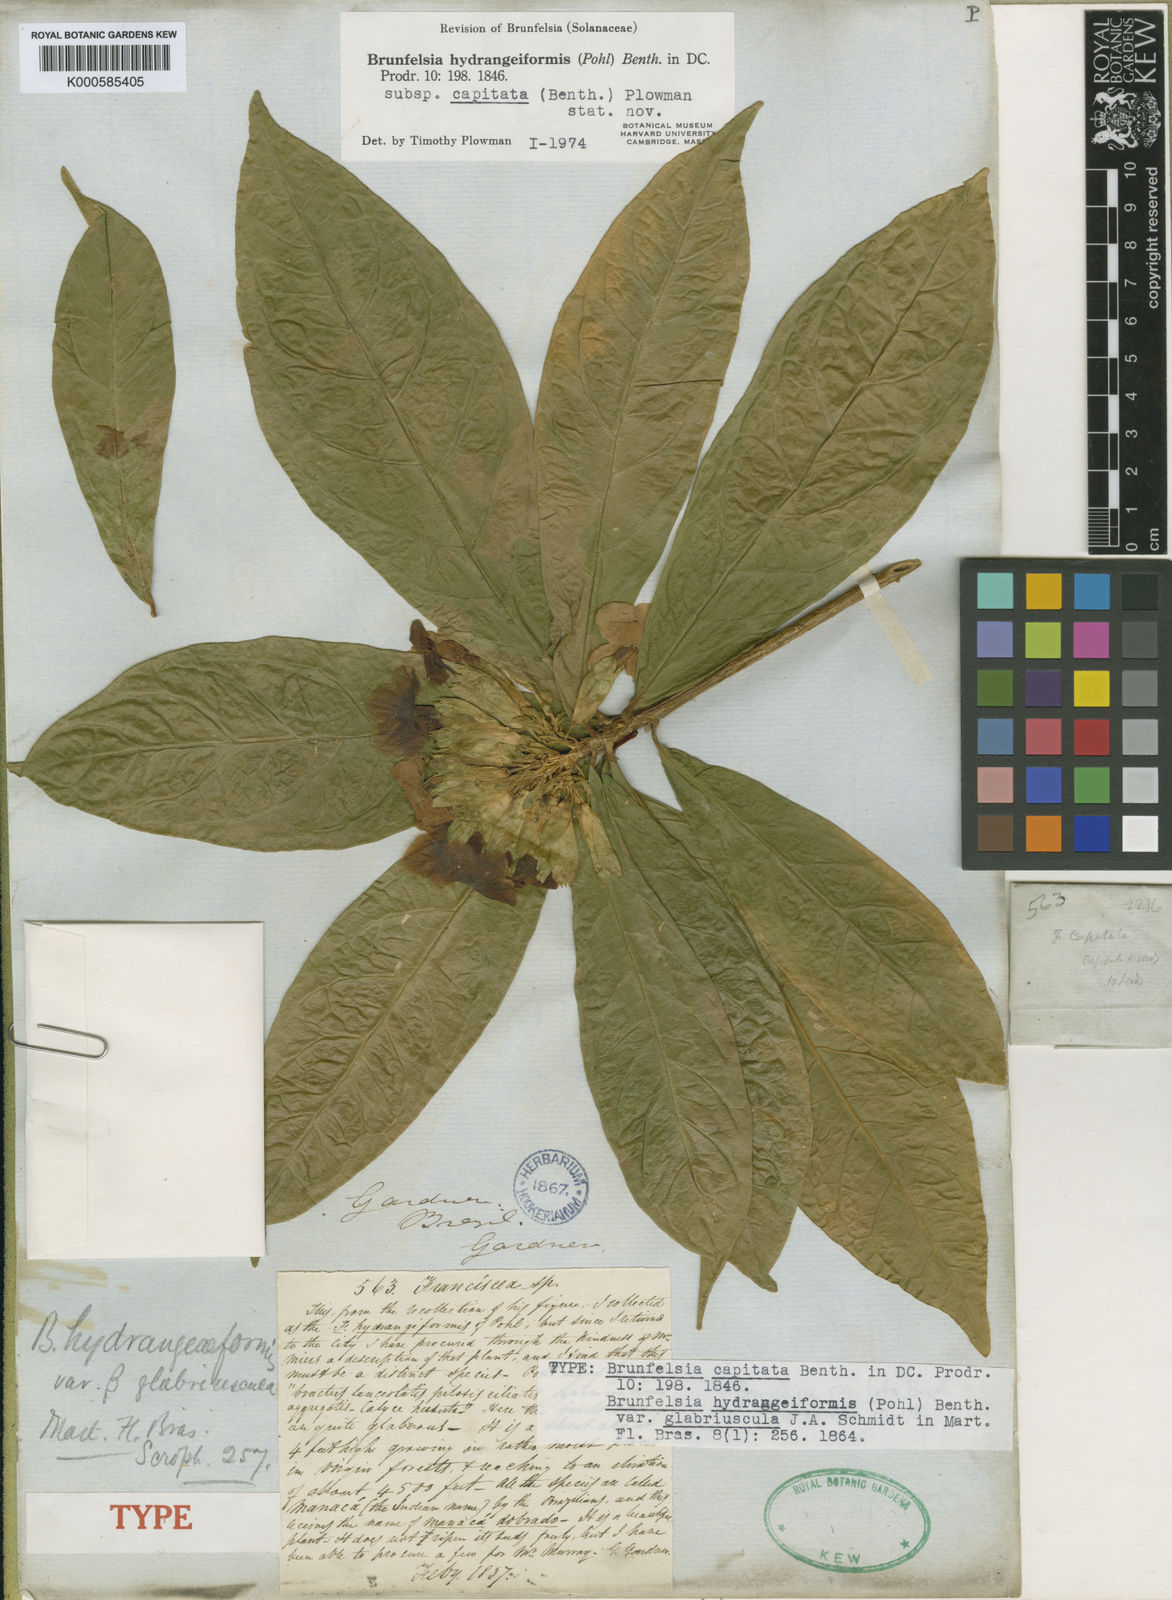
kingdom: Plantae
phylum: Tracheophyta
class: Magnoliopsida
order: Solanales
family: Solanaceae
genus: Brunfelsia
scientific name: Brunfelsia hydrangeiformis
